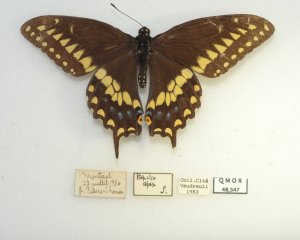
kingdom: Animalia
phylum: Arthropoda
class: Insecta
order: Lepidoptera
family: Papilionidae
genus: Papilio
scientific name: Papilio polyxenes
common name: Black Swallowtail
